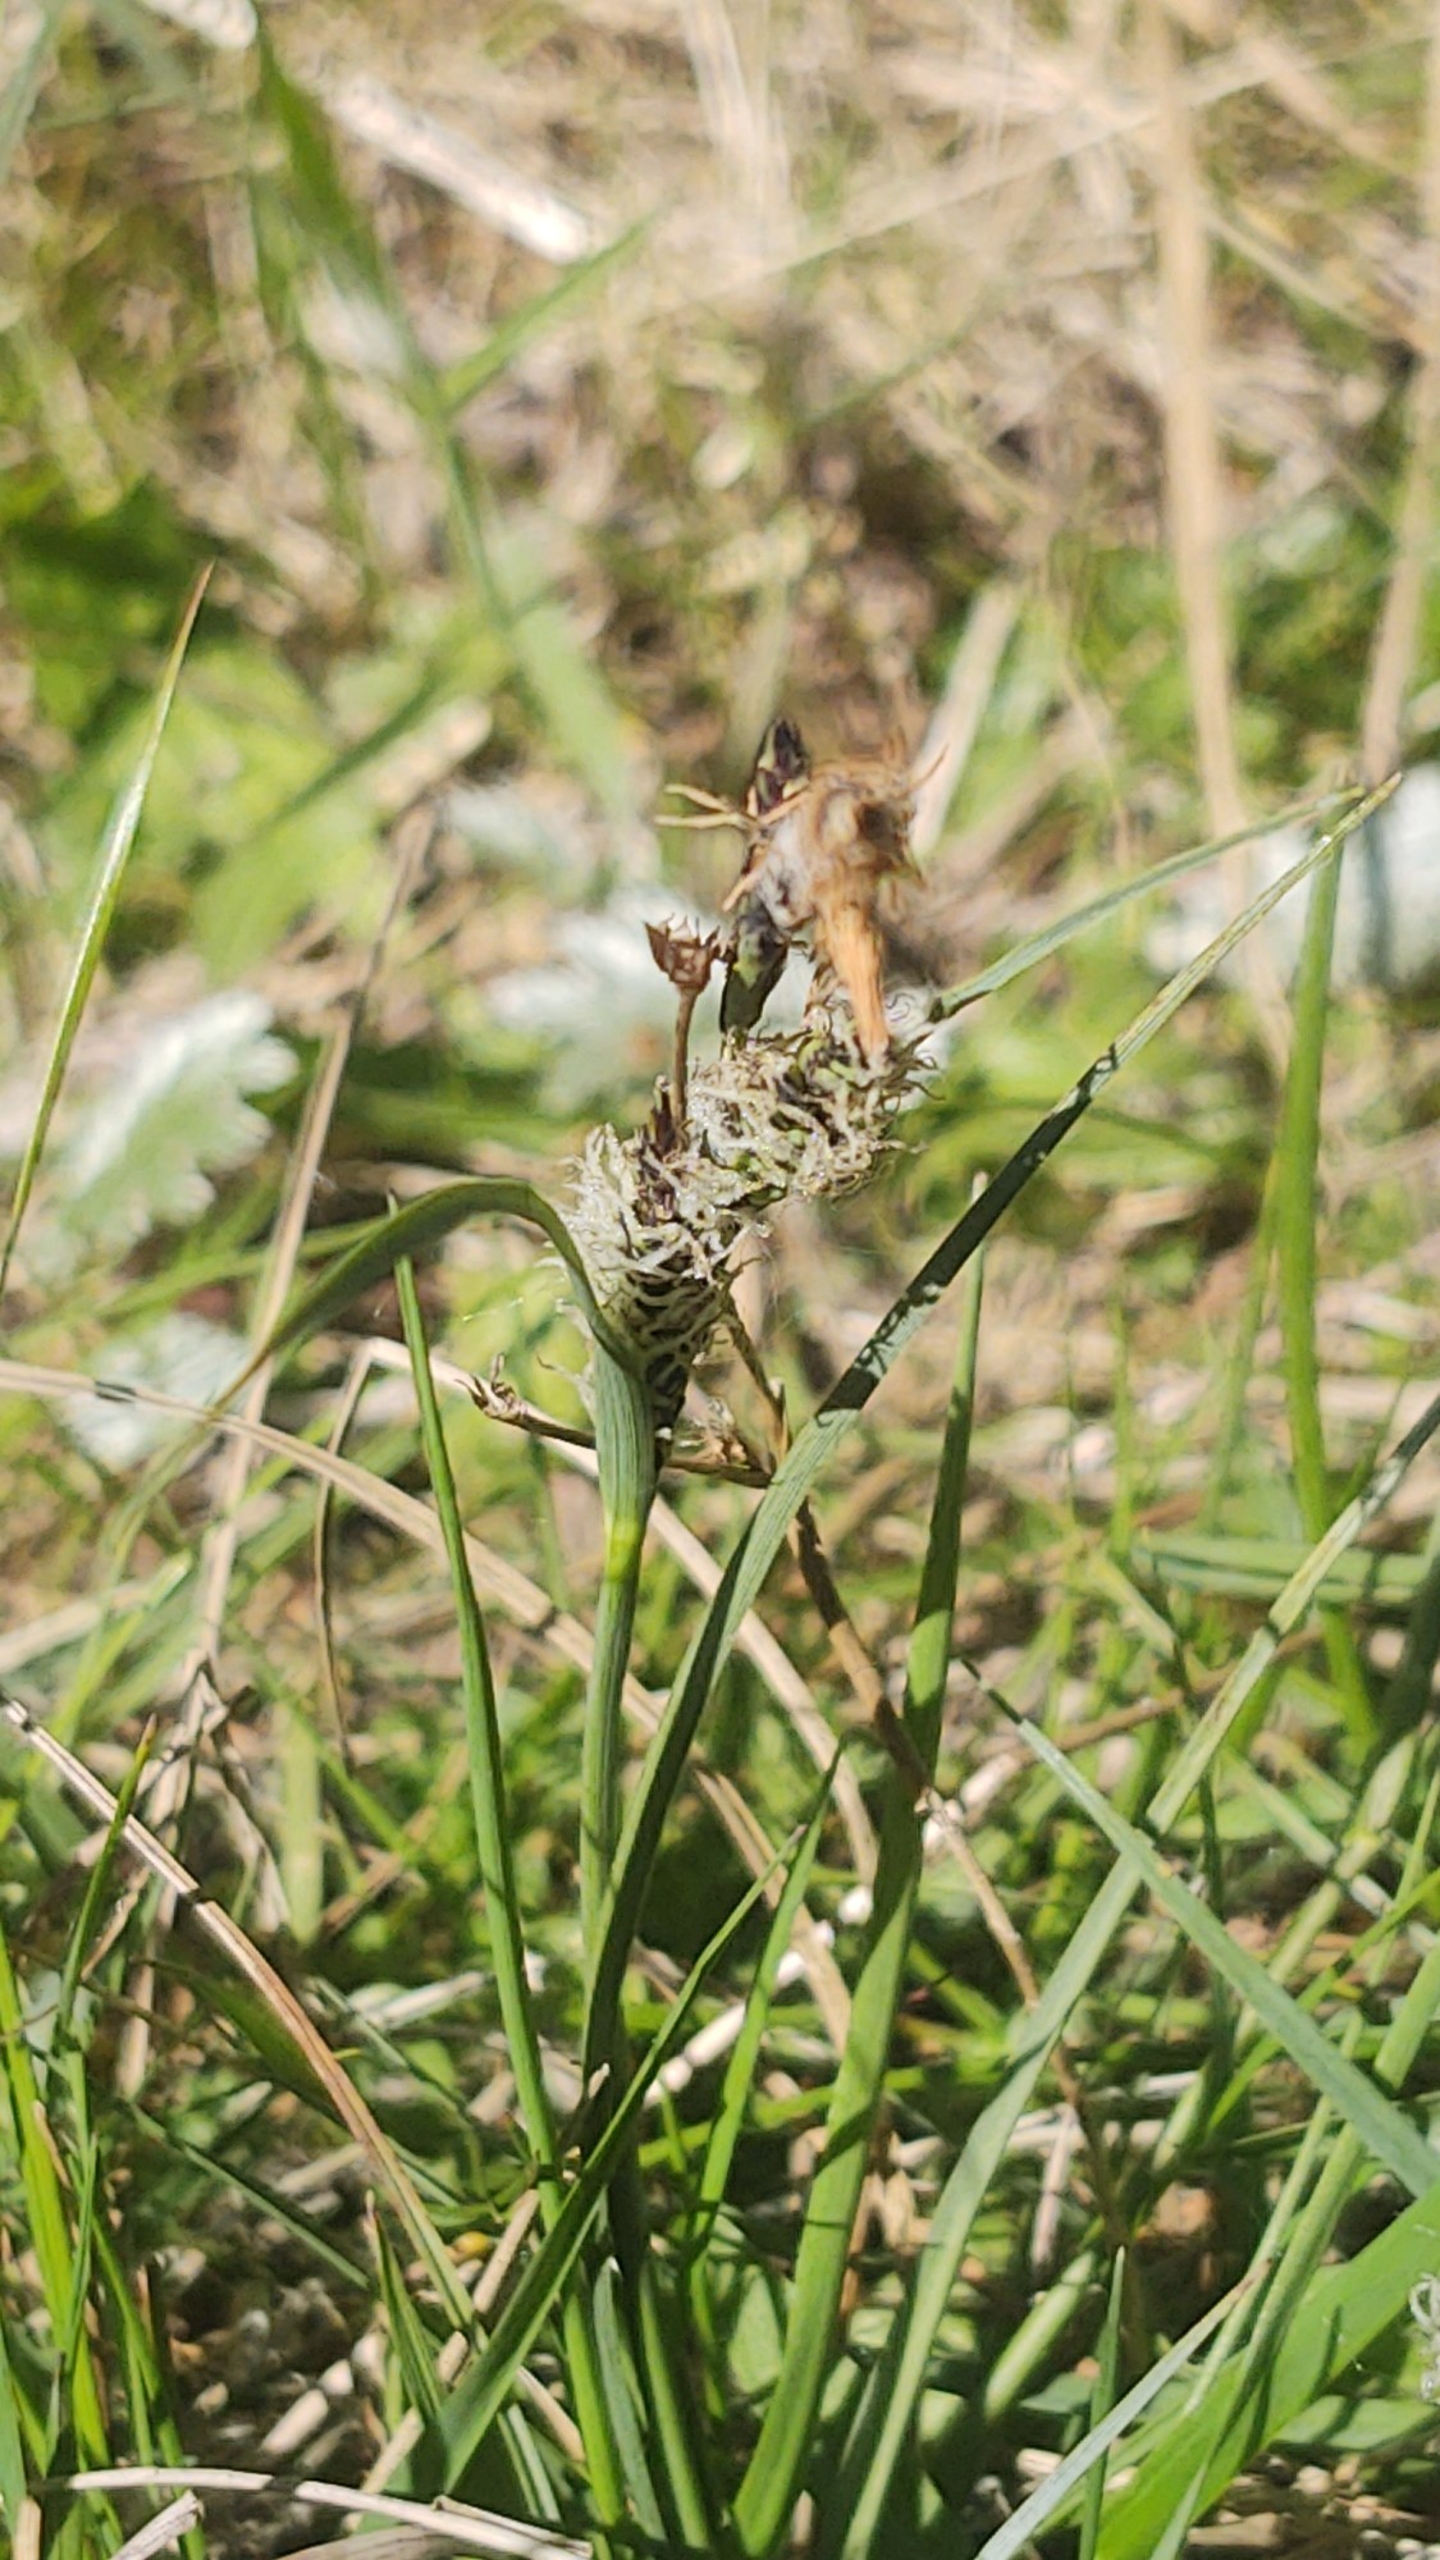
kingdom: Plantae
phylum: Tracheophyta
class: Liliopsida
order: Poales
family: Cyperaceae
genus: Carex
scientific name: Carex trinervis
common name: Klit-star
